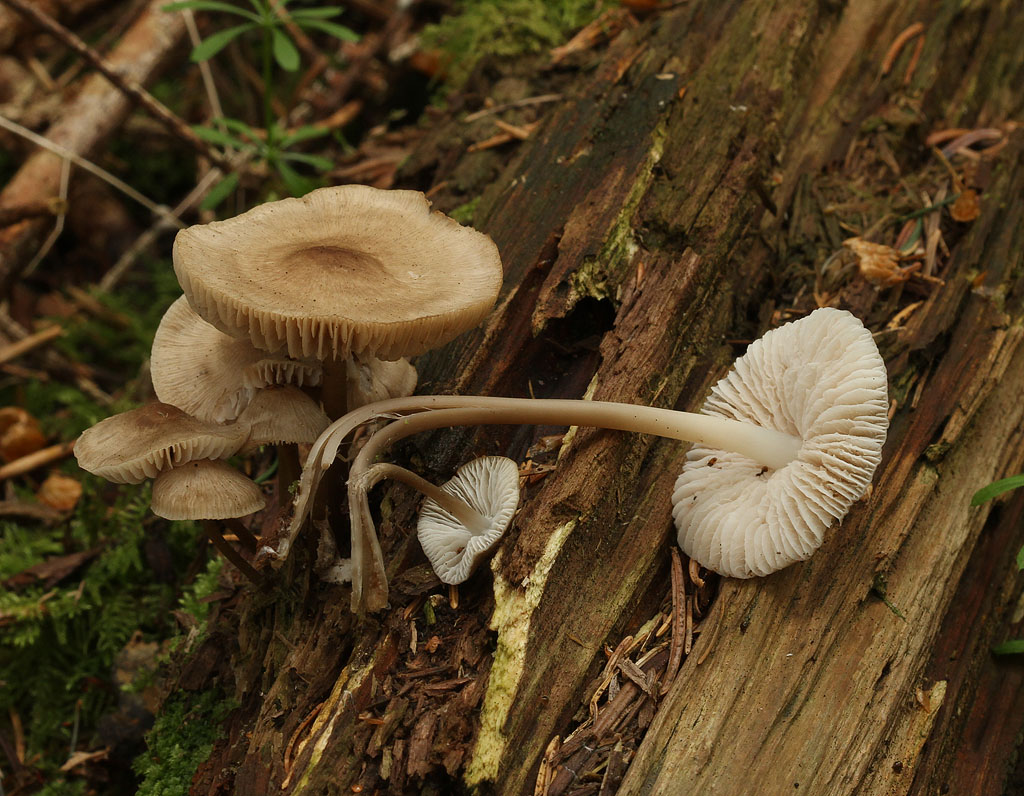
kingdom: Fungi
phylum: Basidiomycota
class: Agaricomycetes
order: Agaricales
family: Mycenaceae
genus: Mycena
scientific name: Mycena galericulata
